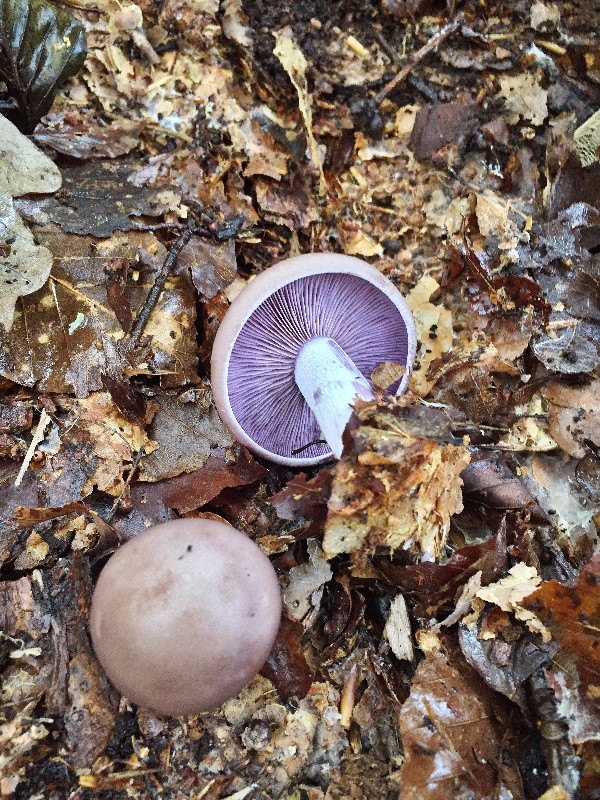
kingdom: Fungi
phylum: Basidiomycota
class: Agaricomycetes
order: Agaricales
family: Tricholomataceae
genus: Lepista
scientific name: Lepista nuda
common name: violet hekseringshat
